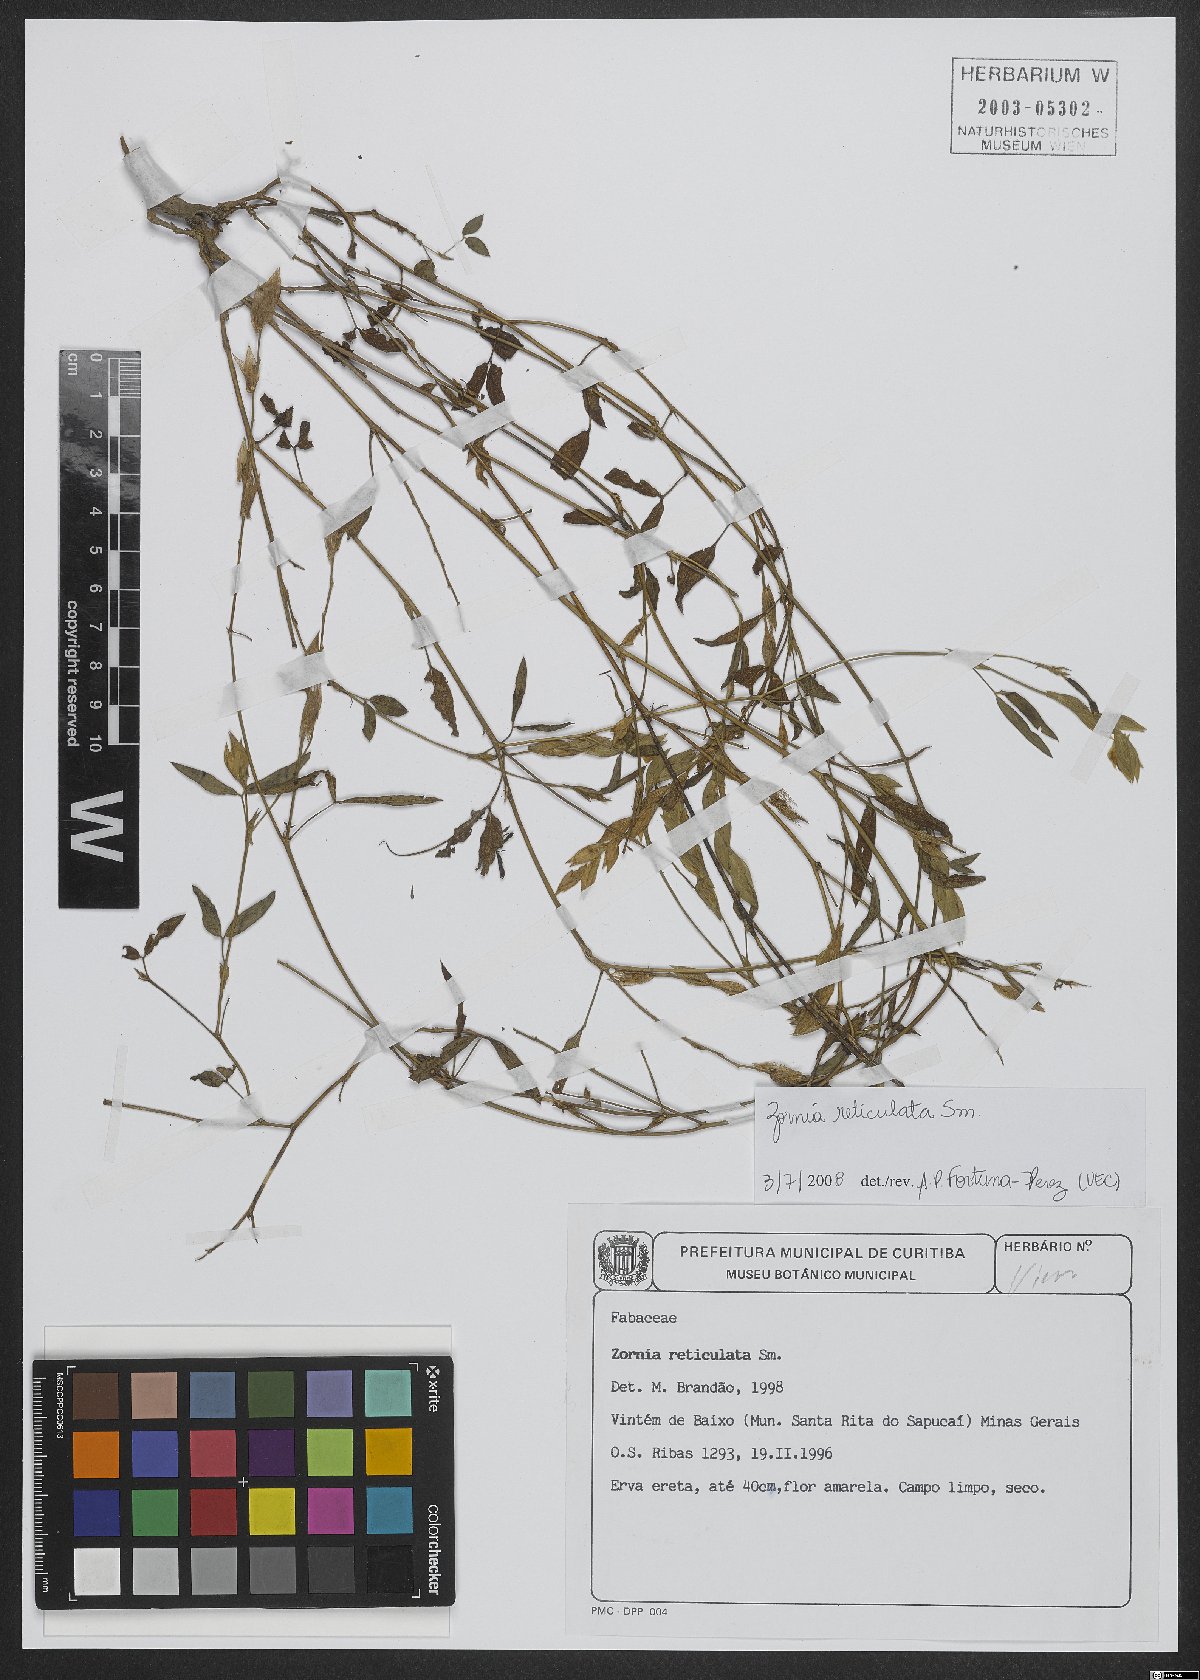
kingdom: Plantae
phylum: Tracheophyta
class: Magnoliopsida
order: Fabales
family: Fabaceae
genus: Zornia
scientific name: Zornia reticulata
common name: Reticulate viperina
